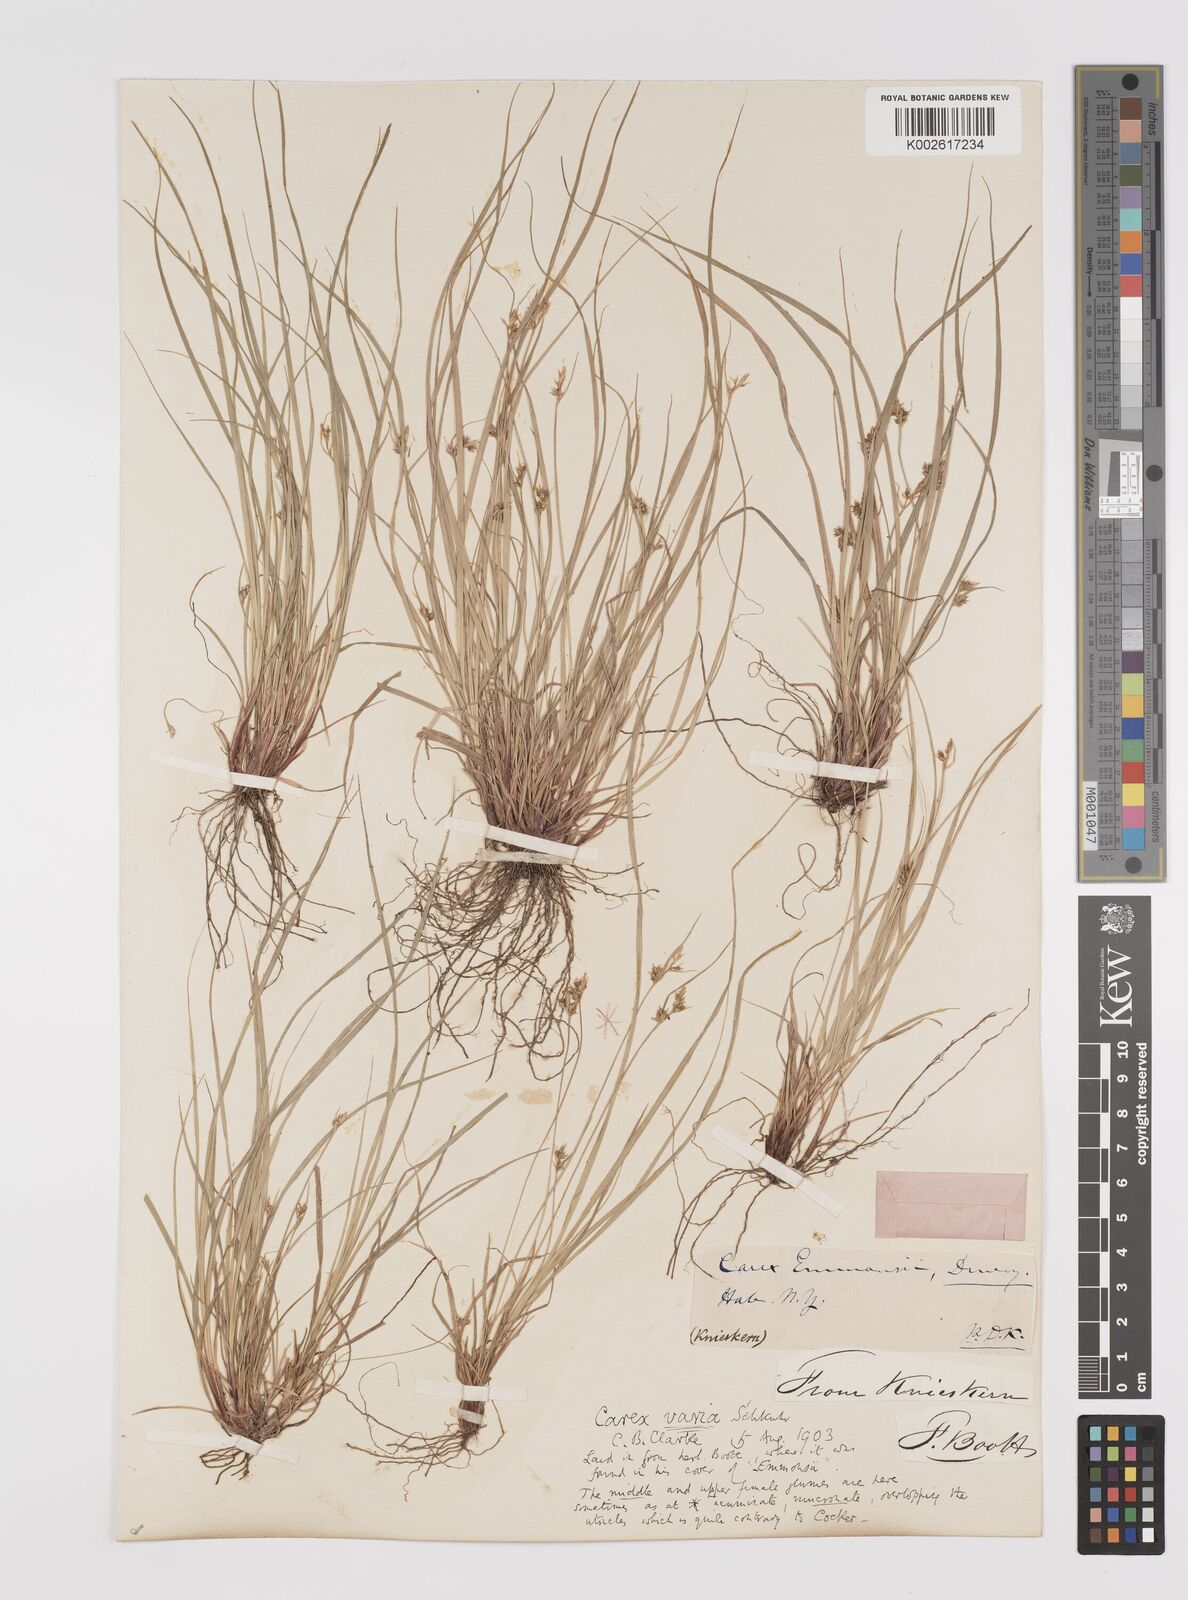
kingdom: Plantae
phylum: Tracheophyta
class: Liliopsida
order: Poales
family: Cyperaceae
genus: Carex
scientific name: Carex albicans
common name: Bellow-beaked sedge
